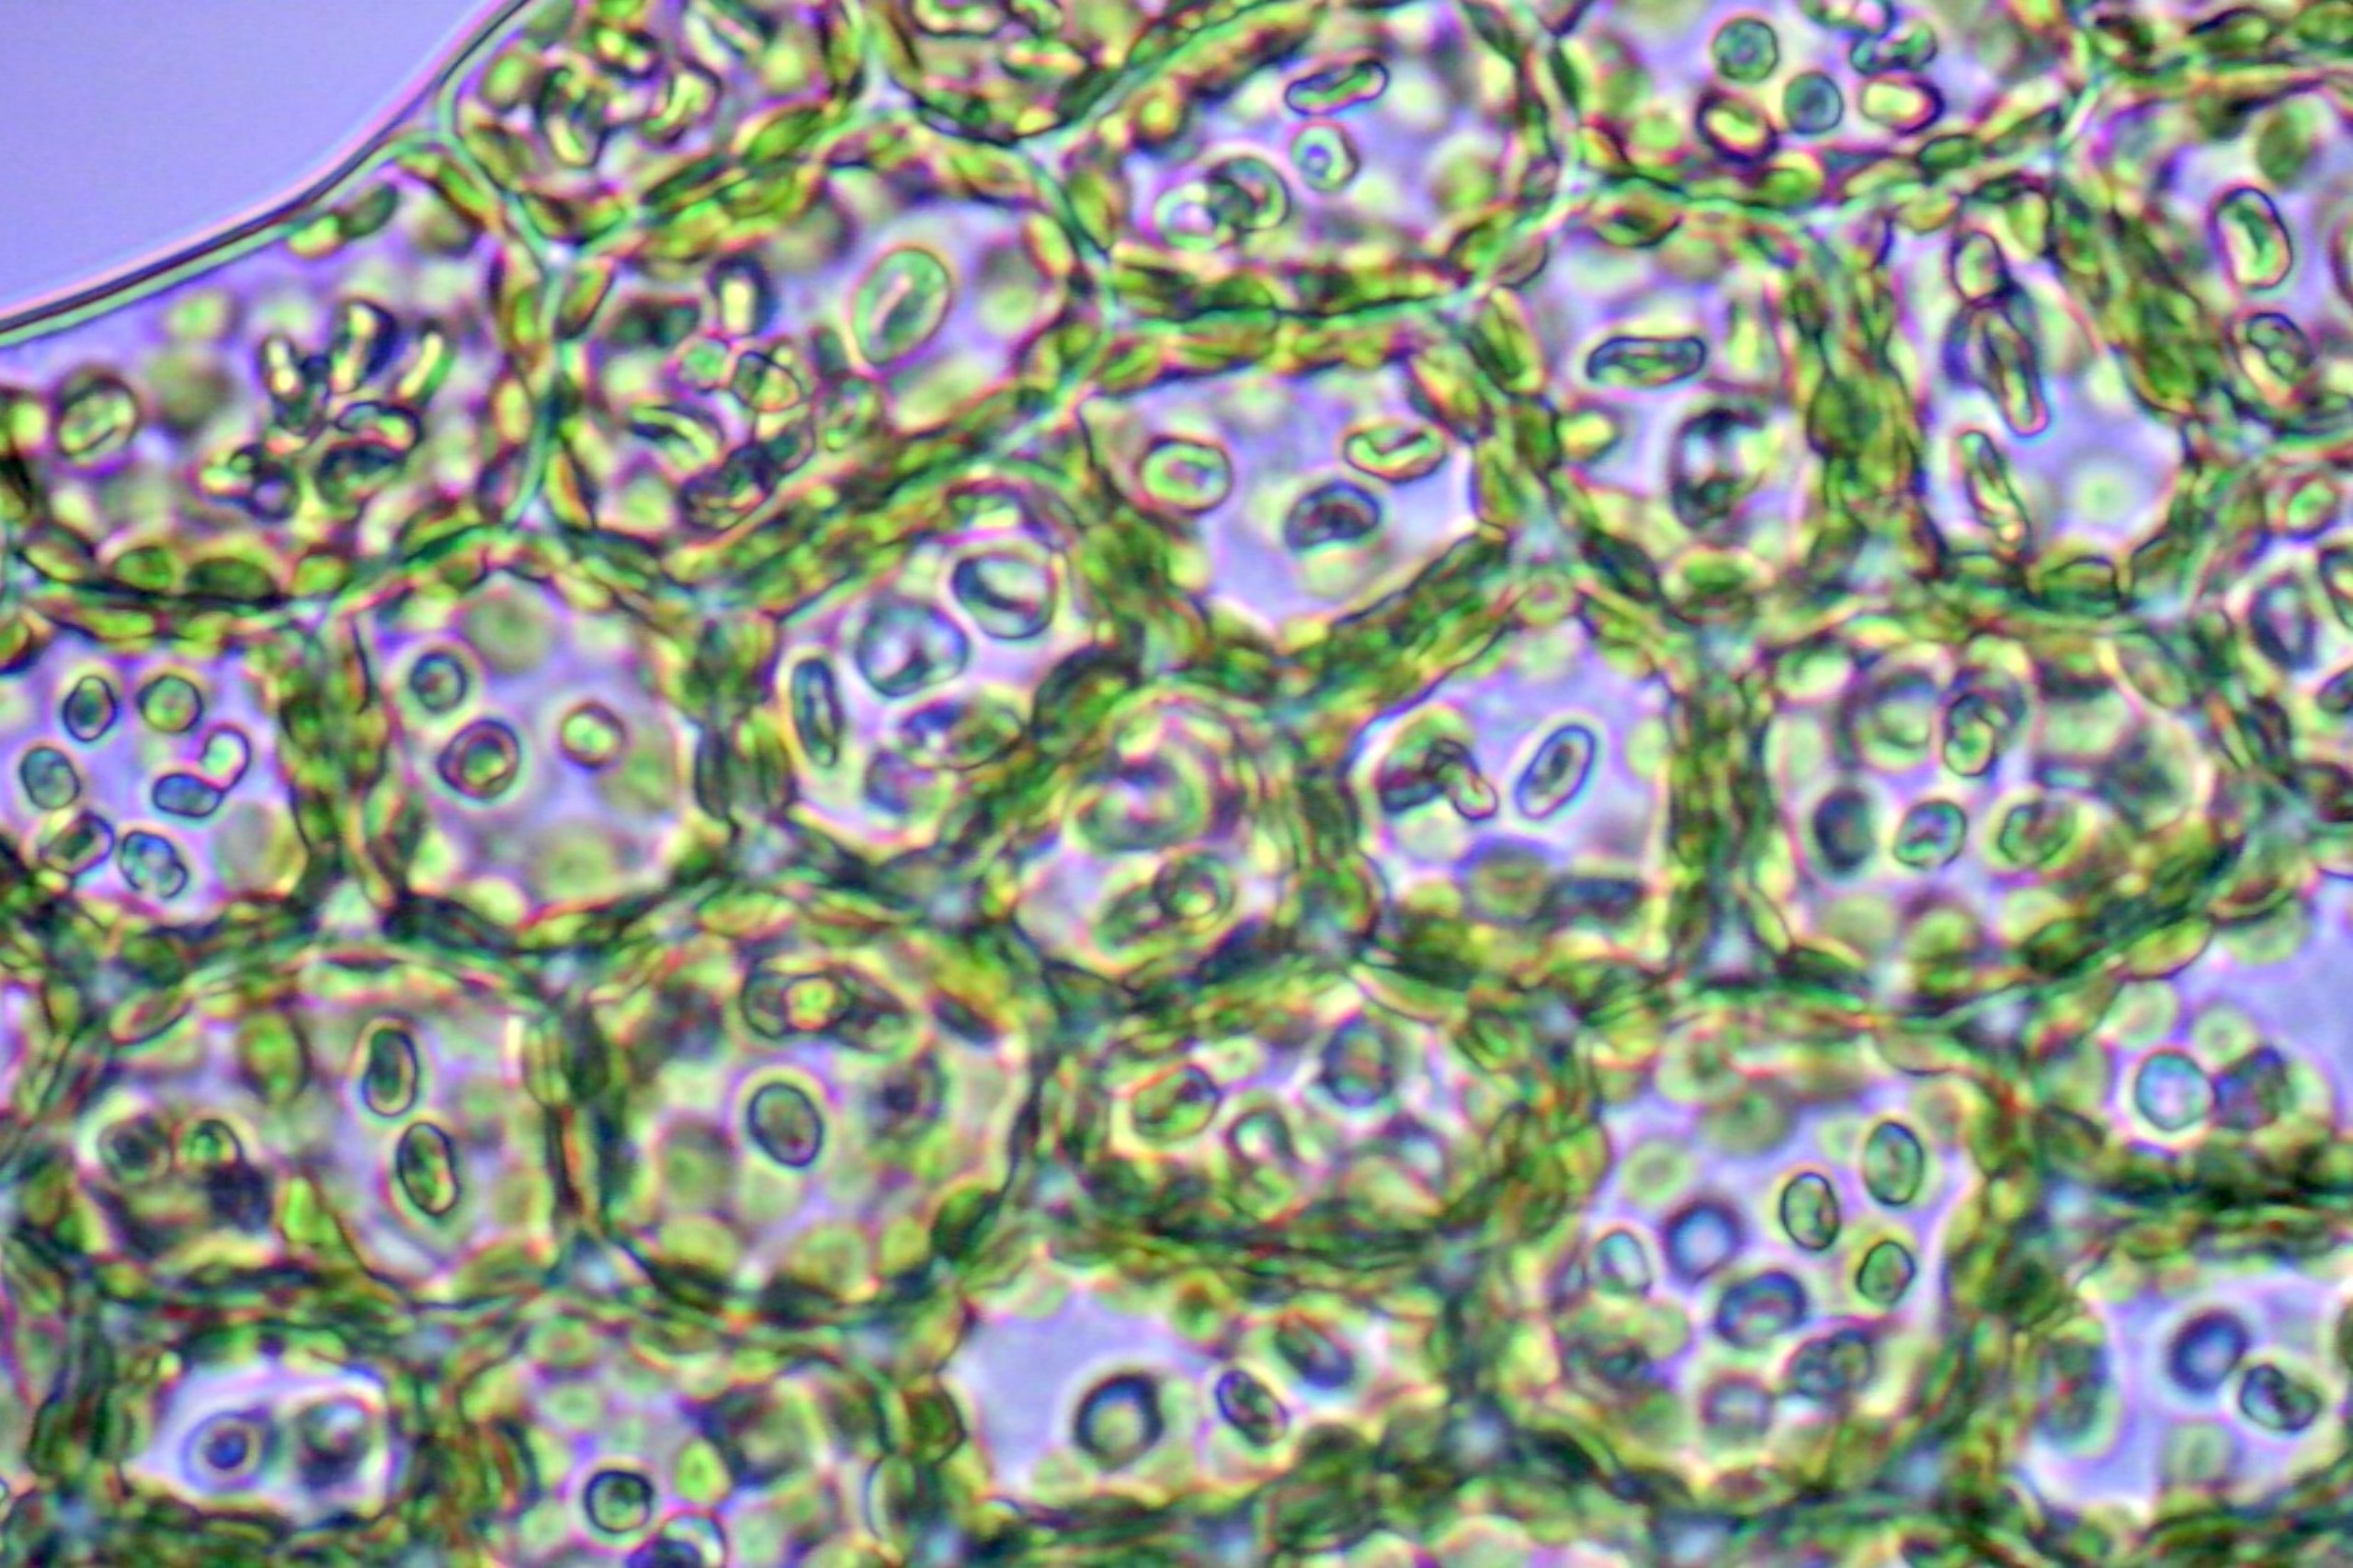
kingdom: Plantae
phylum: Marchantiophyta
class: Jungermanniopsida
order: Jungermanniales
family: Lophoziaceae
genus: Lophozia
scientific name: Lophozia silvicola
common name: Smalbladet foldbæger
